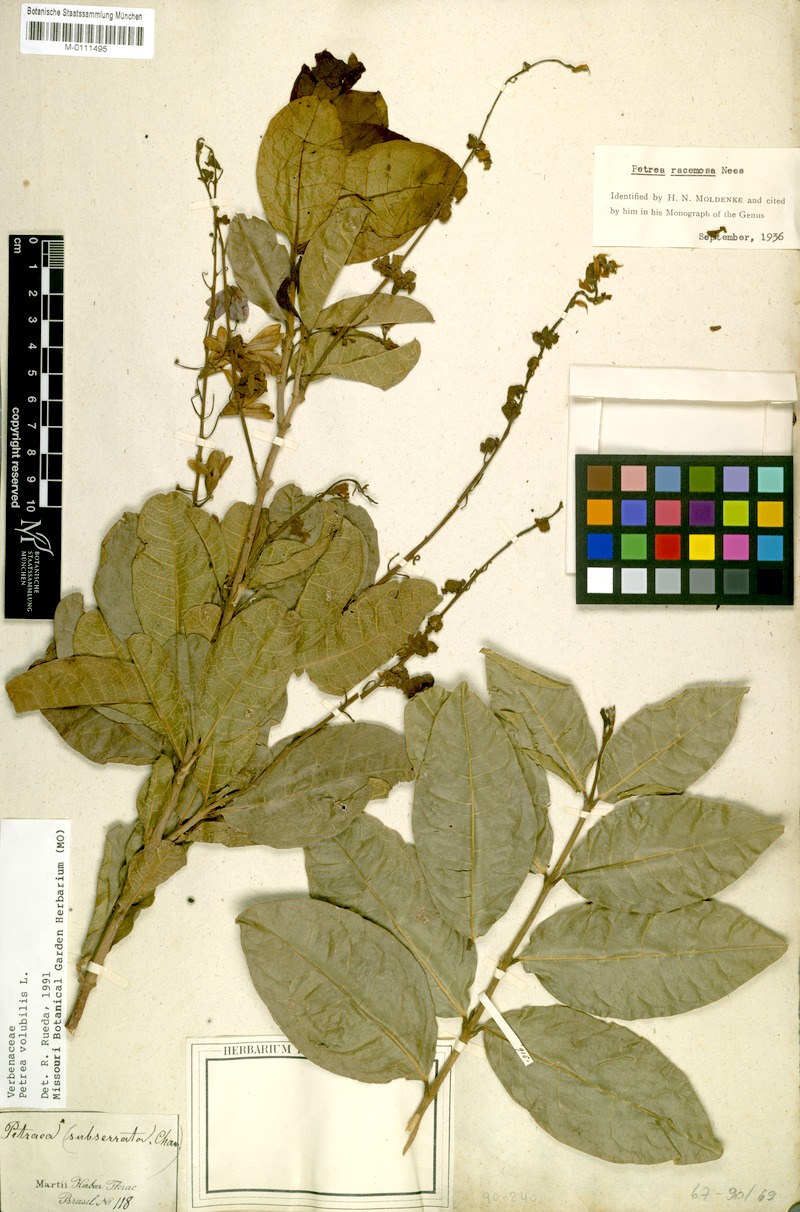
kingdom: Plantae
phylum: Tracheophyta
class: Magnoliopsida
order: Lamiales
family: Verbenaceae
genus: Petrea
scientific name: Petrea volubilis
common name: Queen's-wreath
